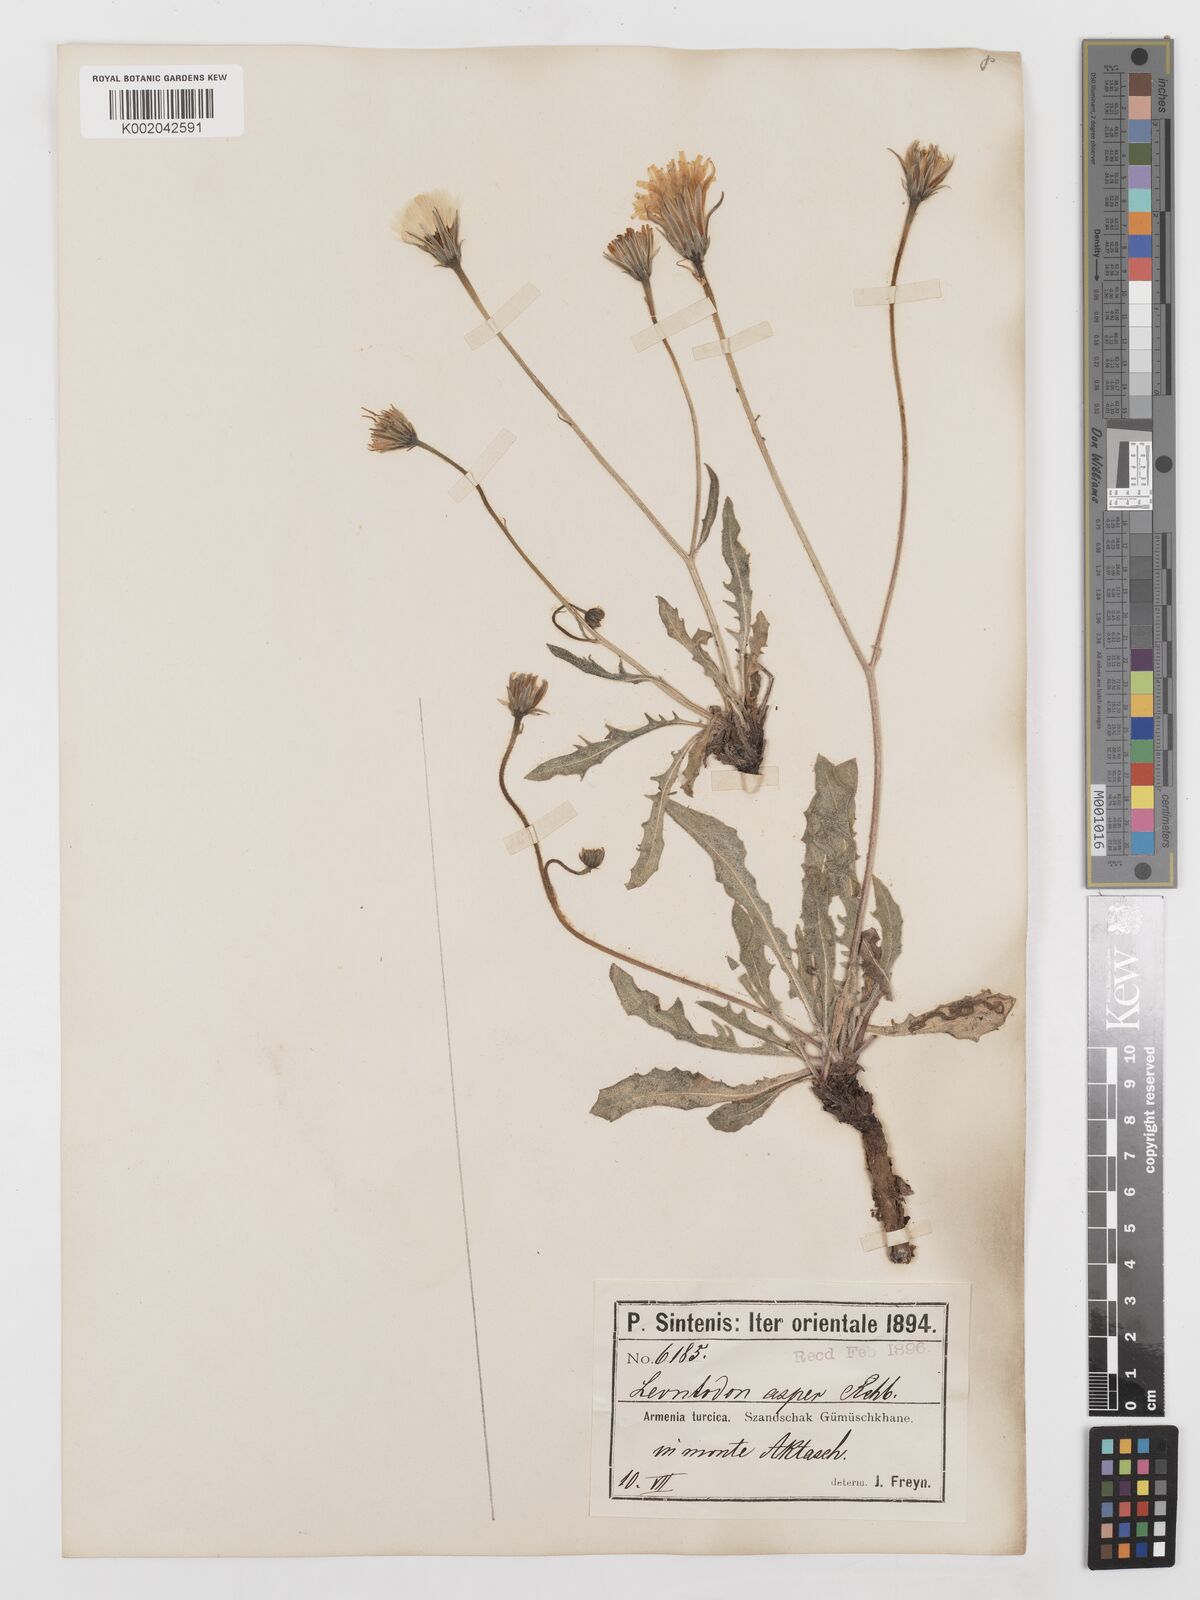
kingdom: Plantae
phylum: Tracheophyta
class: Magnoliopsida
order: Asterales
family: Asteraceae
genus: Leontodon
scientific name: Leontodon biscutellifolius
